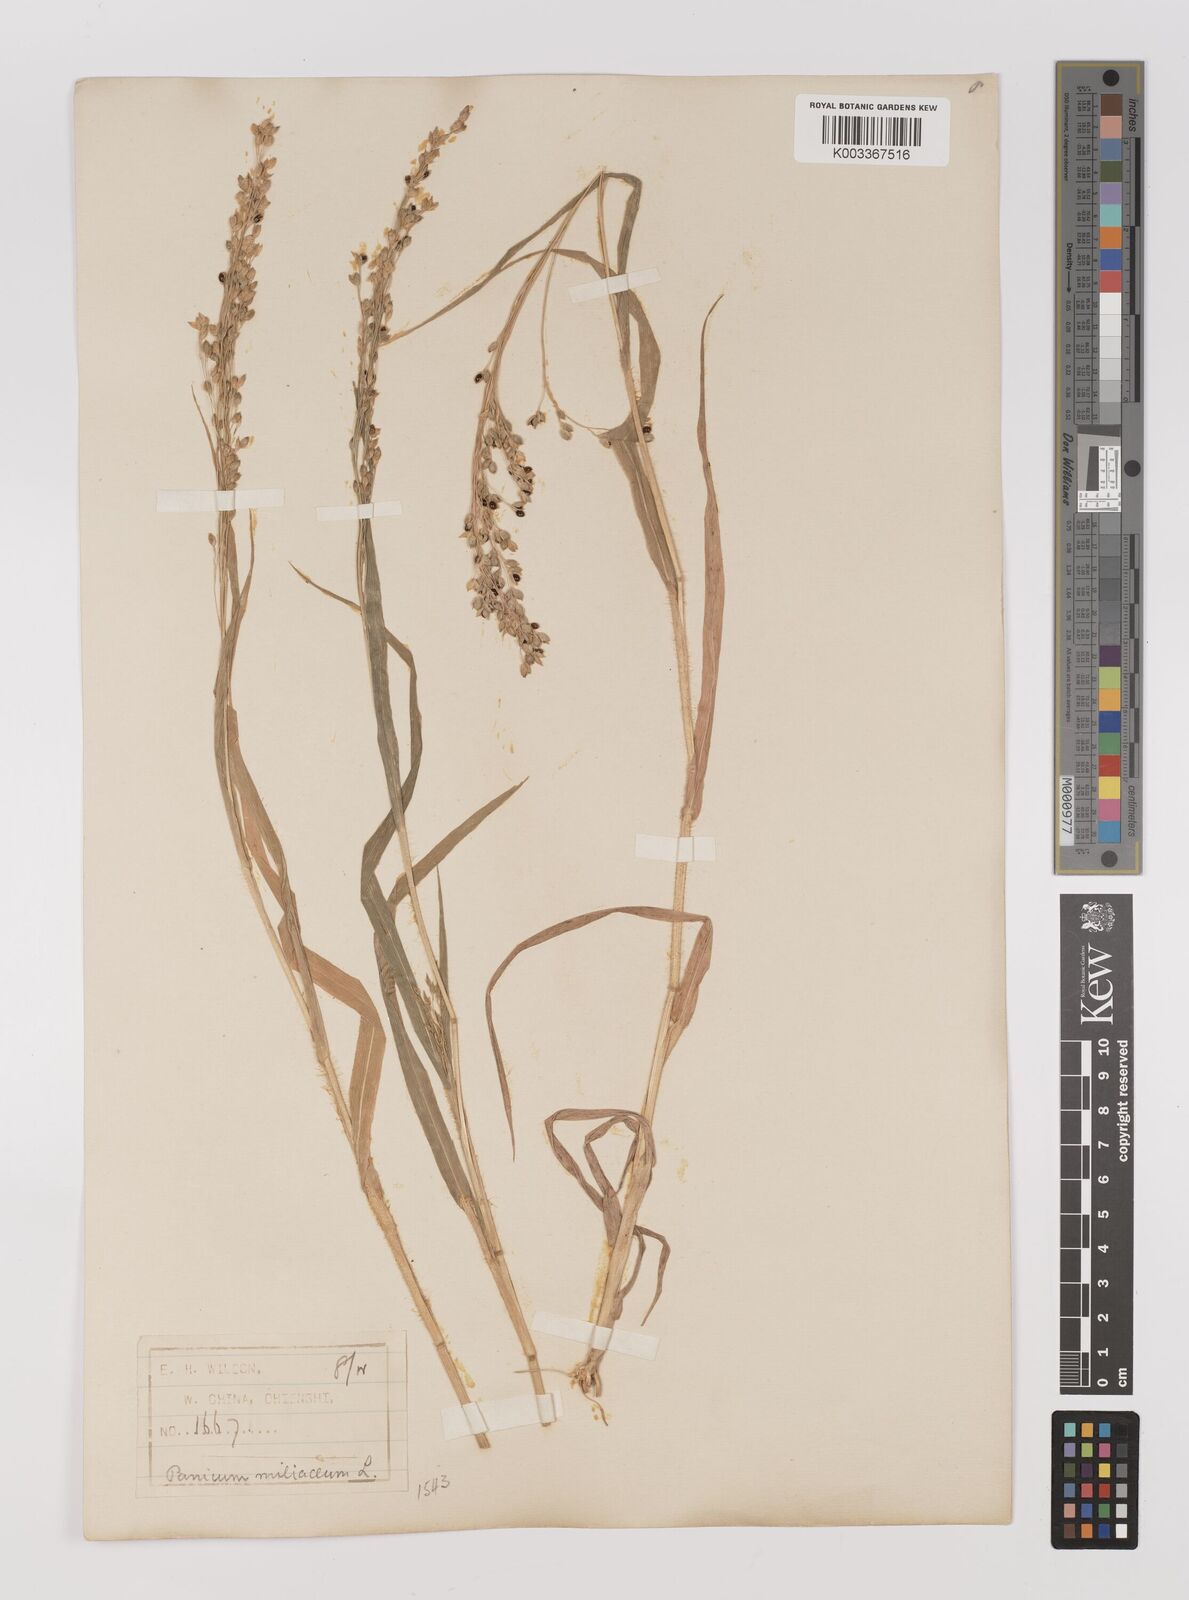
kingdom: Plantae
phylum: Tracheophyta
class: Liliopsida
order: Poales
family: Poaceae
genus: Panicum
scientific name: Panicum miliaceum
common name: Common millet
